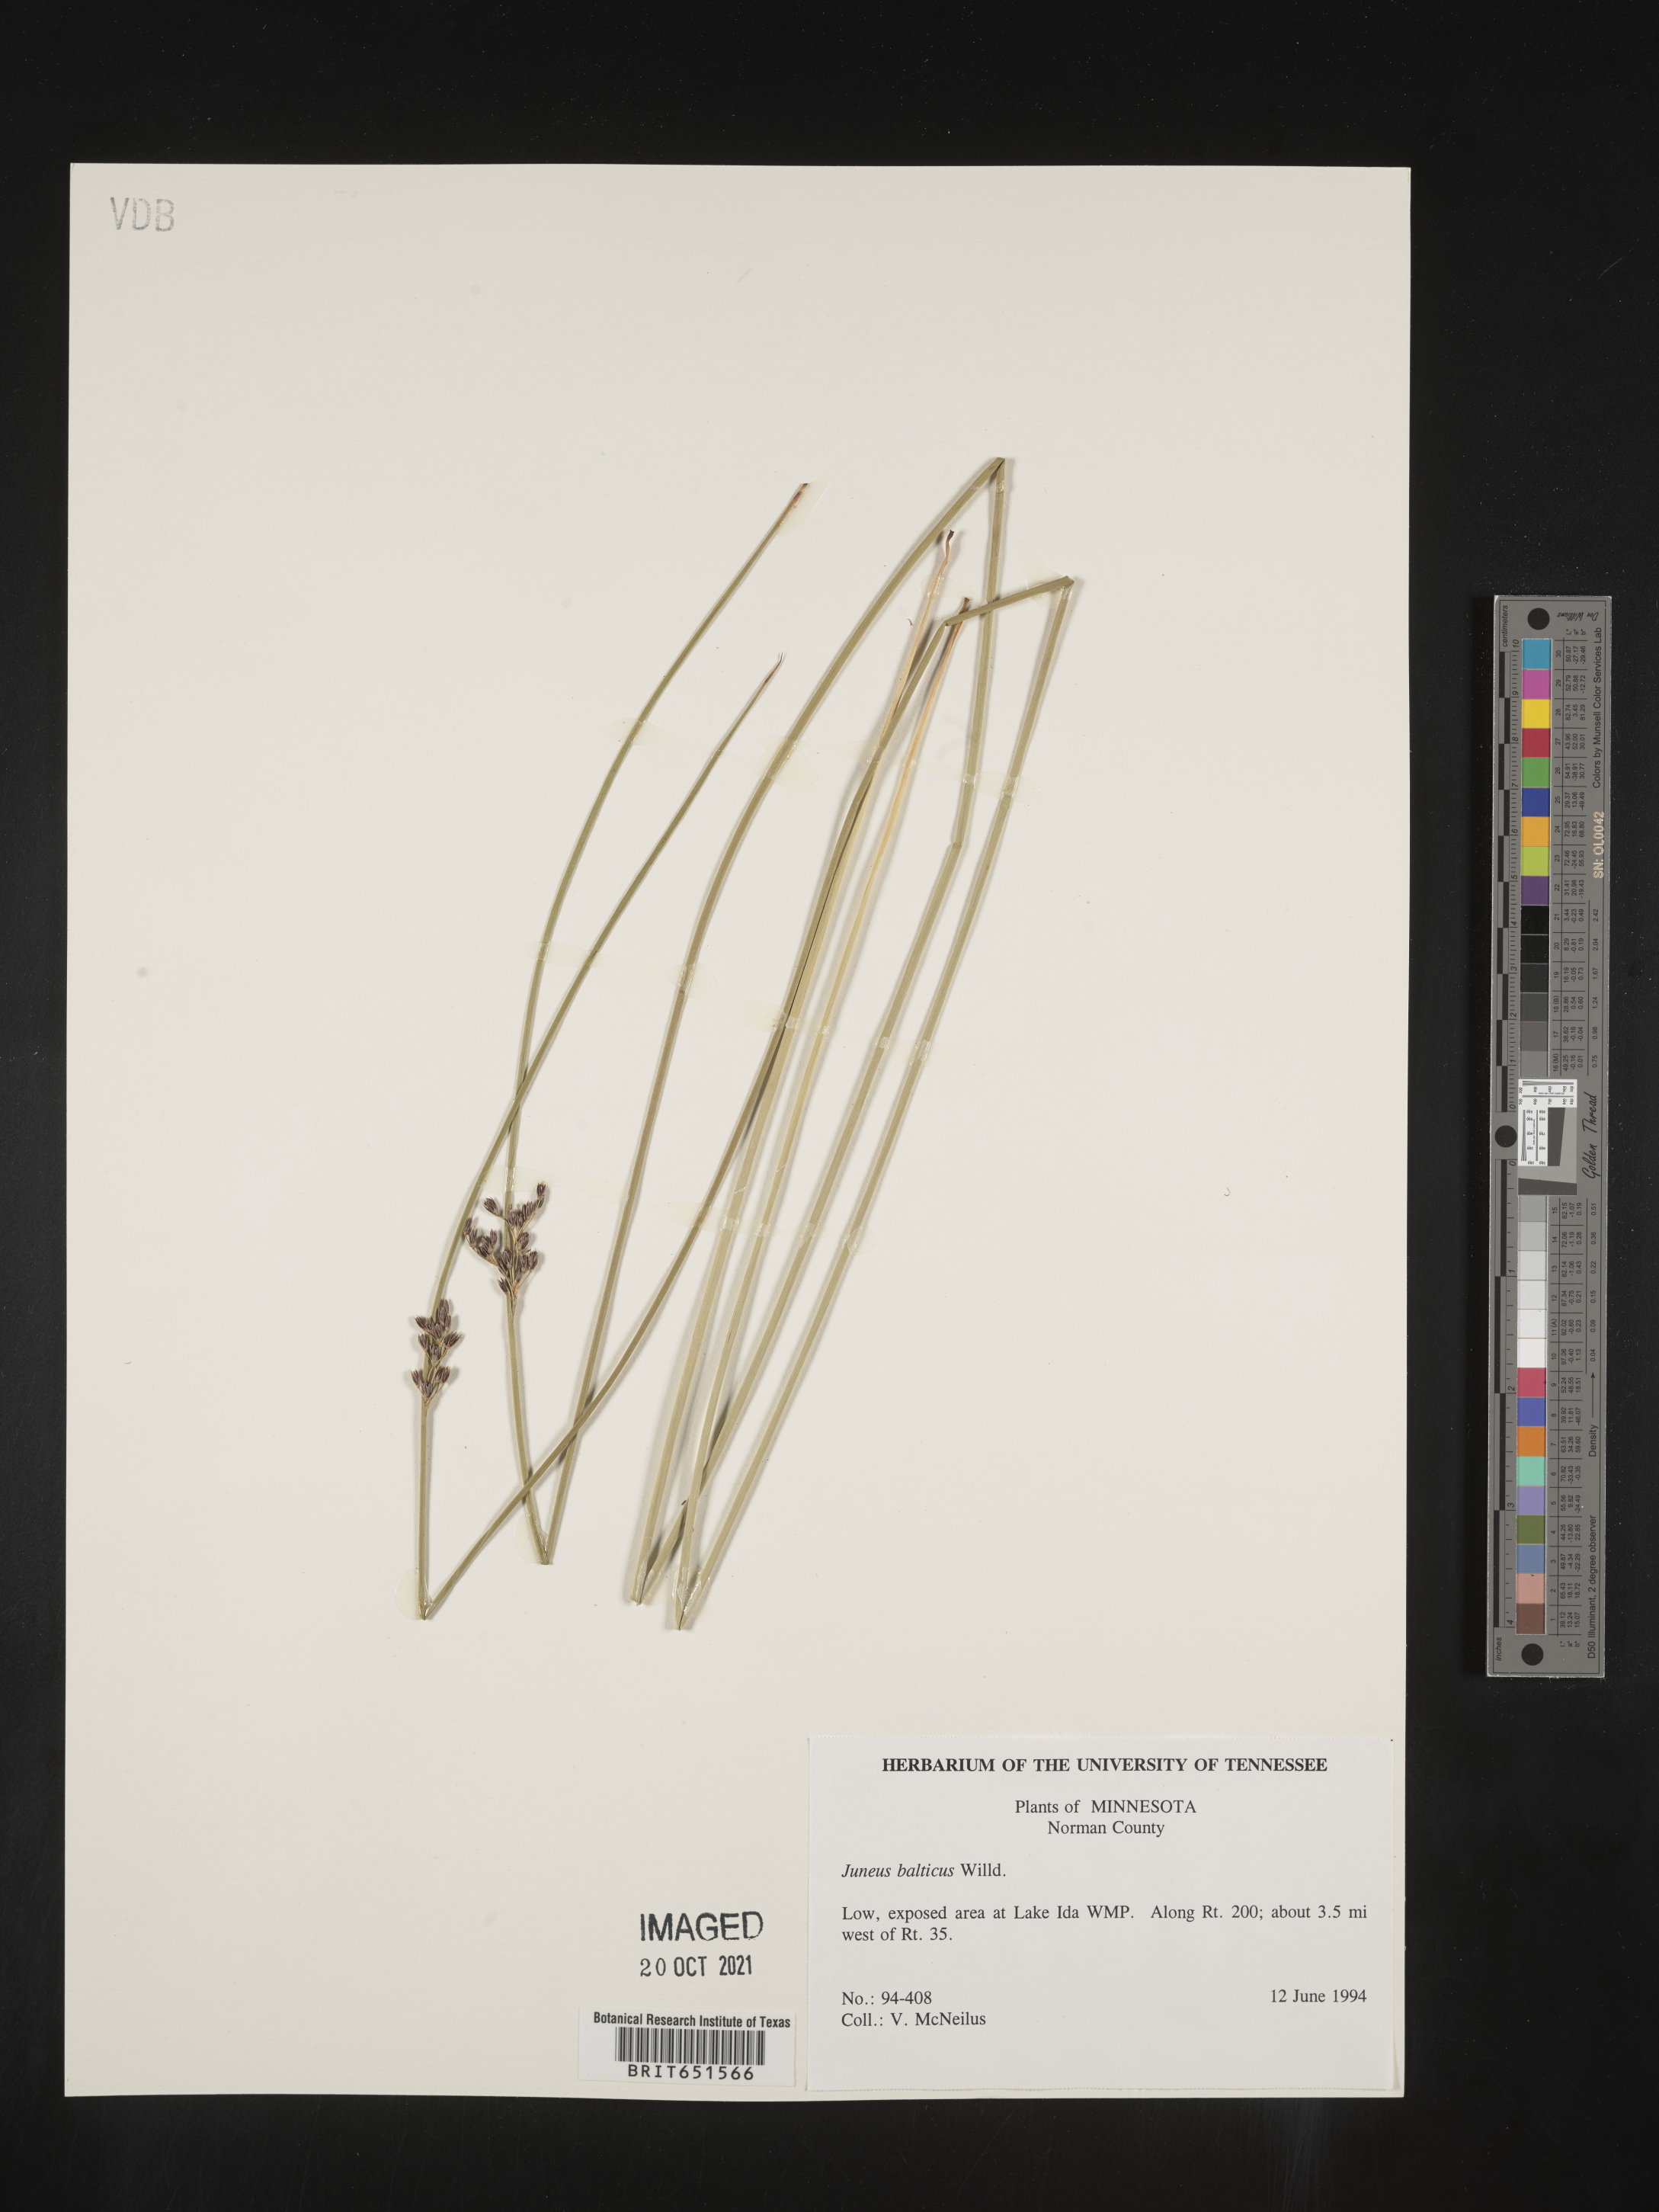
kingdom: Plantae
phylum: Tracheophyta
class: Liliopsida
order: Poales
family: Juncaceae
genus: Juncus
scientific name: Juncus balticus
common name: Baltic rush
